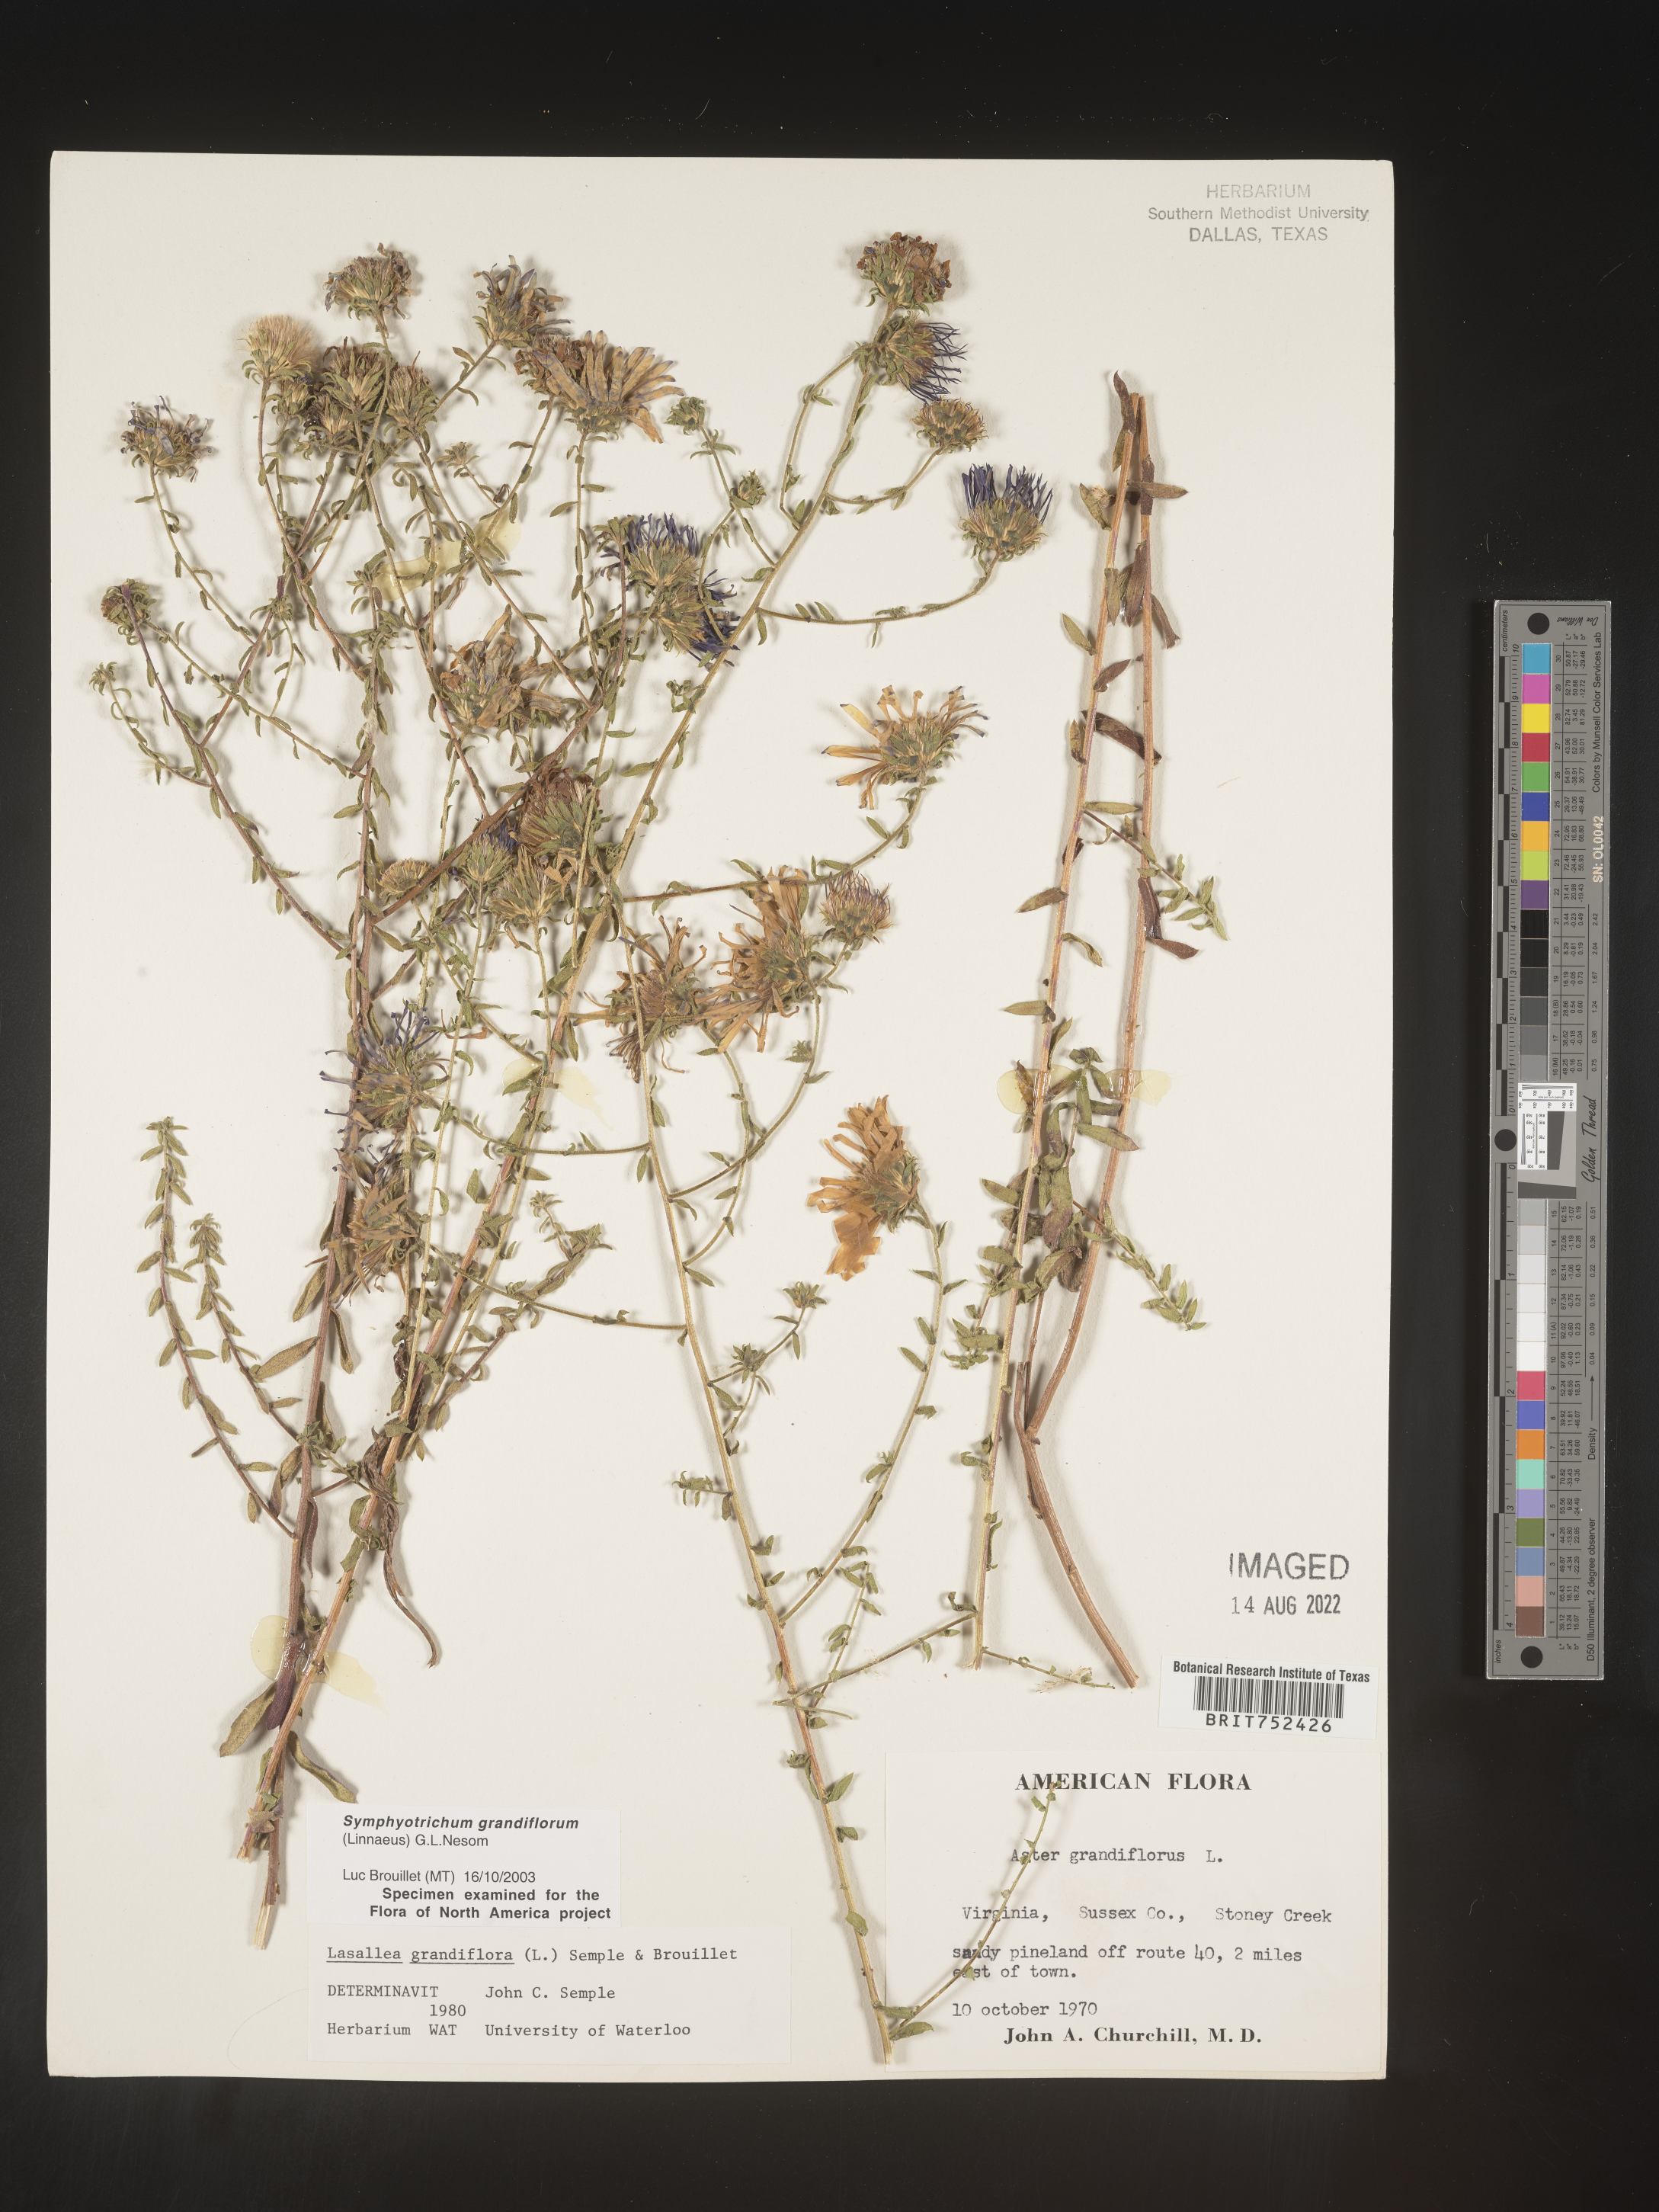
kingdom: Plantae
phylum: Tracheophyta
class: Magnoliopsida
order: Asterales
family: Asteraceae
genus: Symphyotrichum
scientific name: Symphyotrichum grandiflorum
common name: Big-head aster
